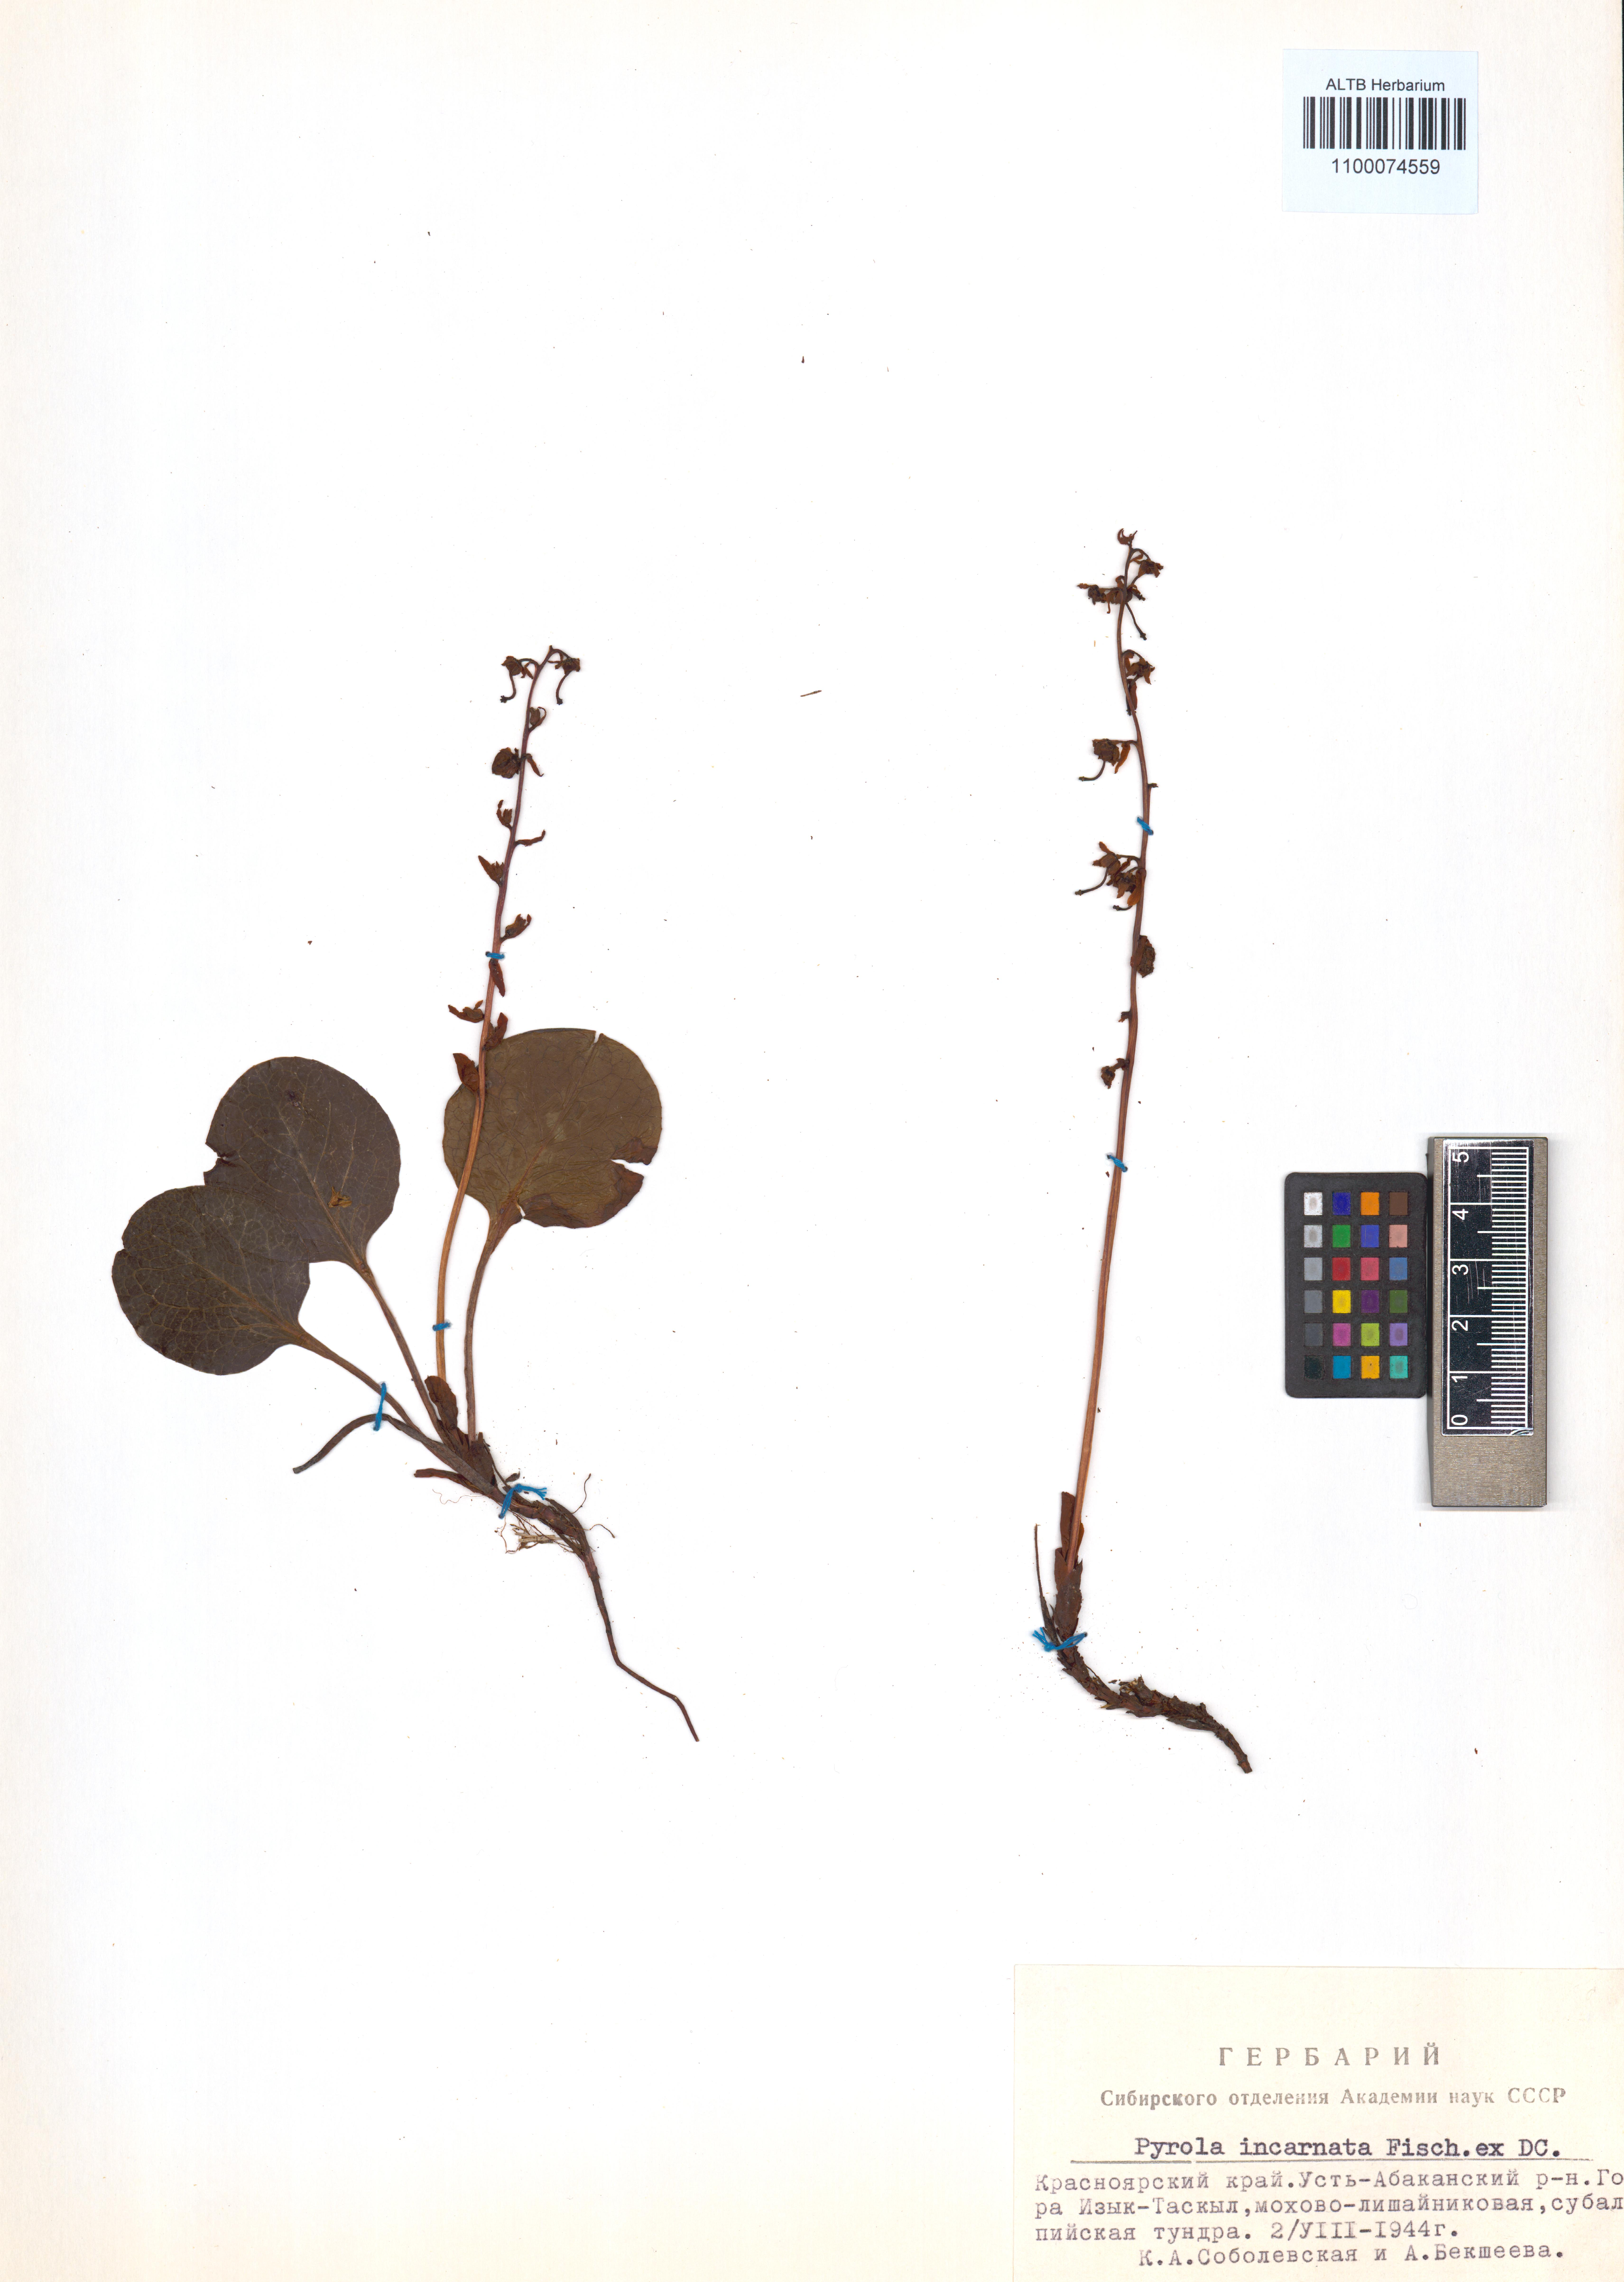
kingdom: Plantae
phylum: Tracheophyta
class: Magnoliopsida
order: Ericales
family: Ericaceae
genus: Pyrola
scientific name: Pyrola asarifolia
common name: Bog wintergreen
